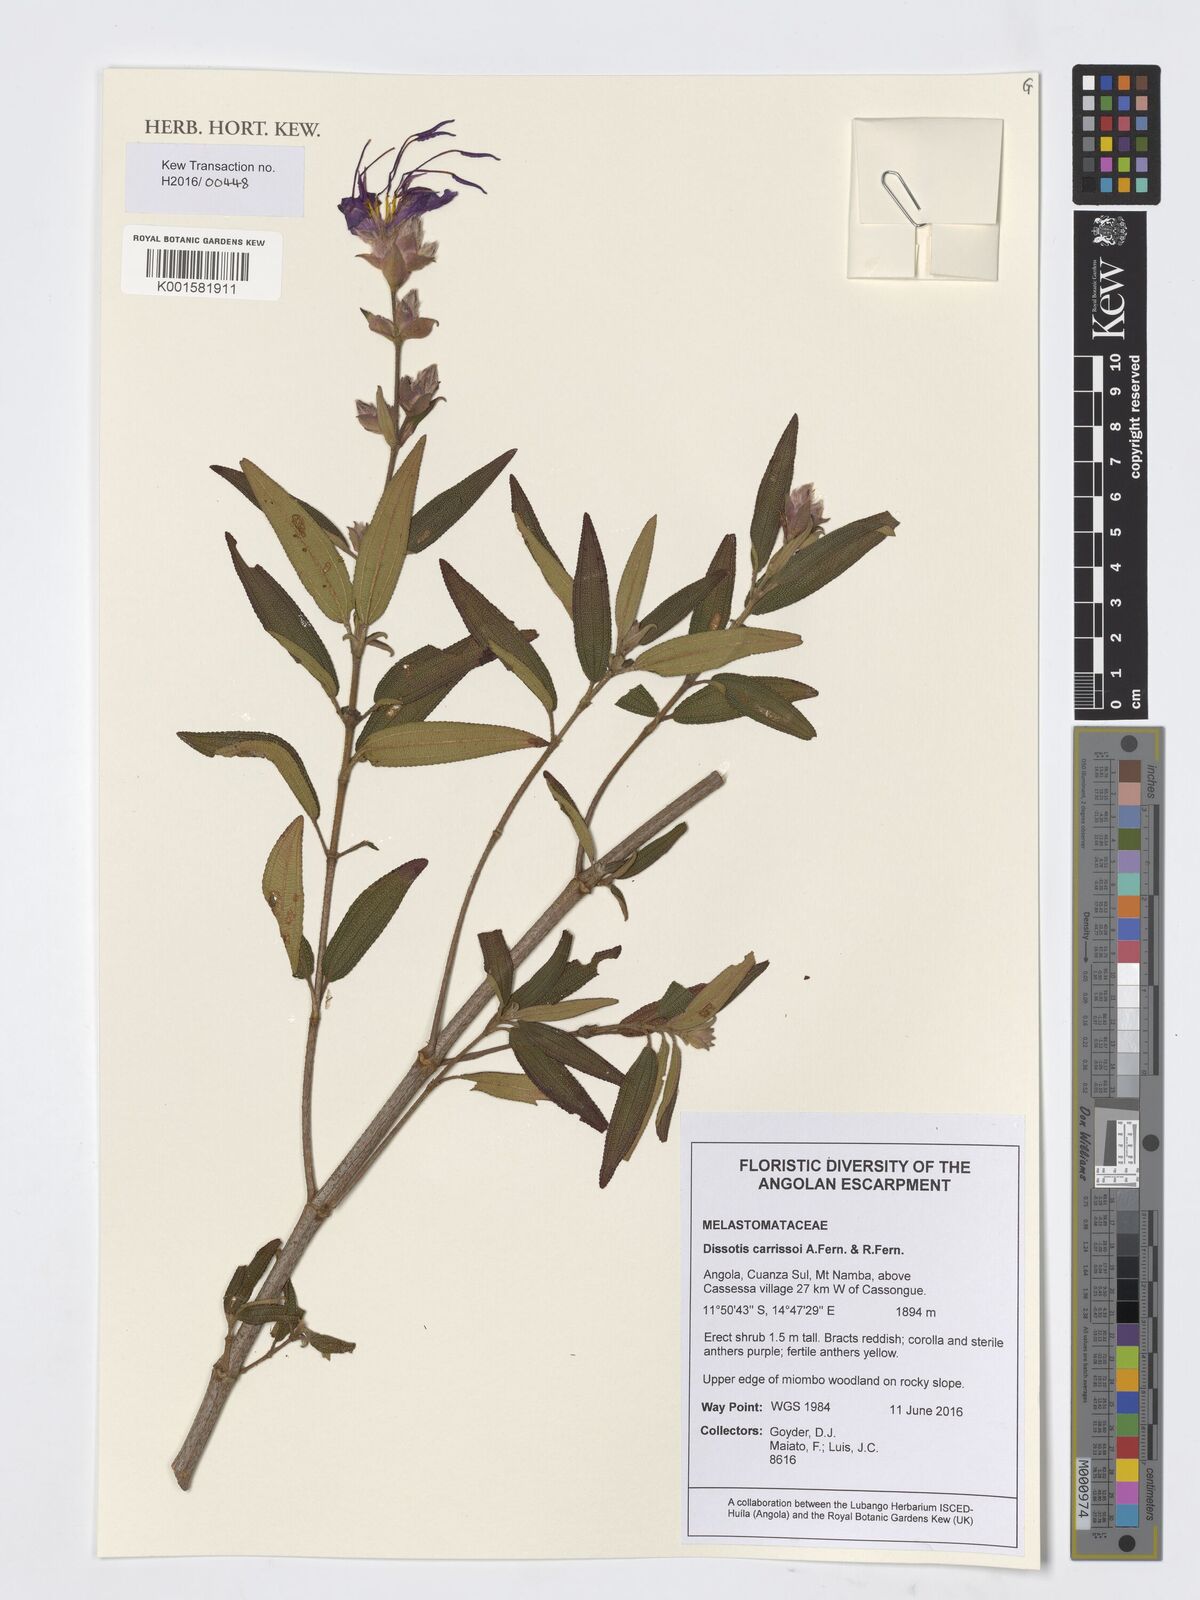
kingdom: Plantae
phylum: Tracheophyta
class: Magnoliopsida
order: Myrtales
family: Melastomataceae
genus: Rosettea
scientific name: Rosettea carrissoi
